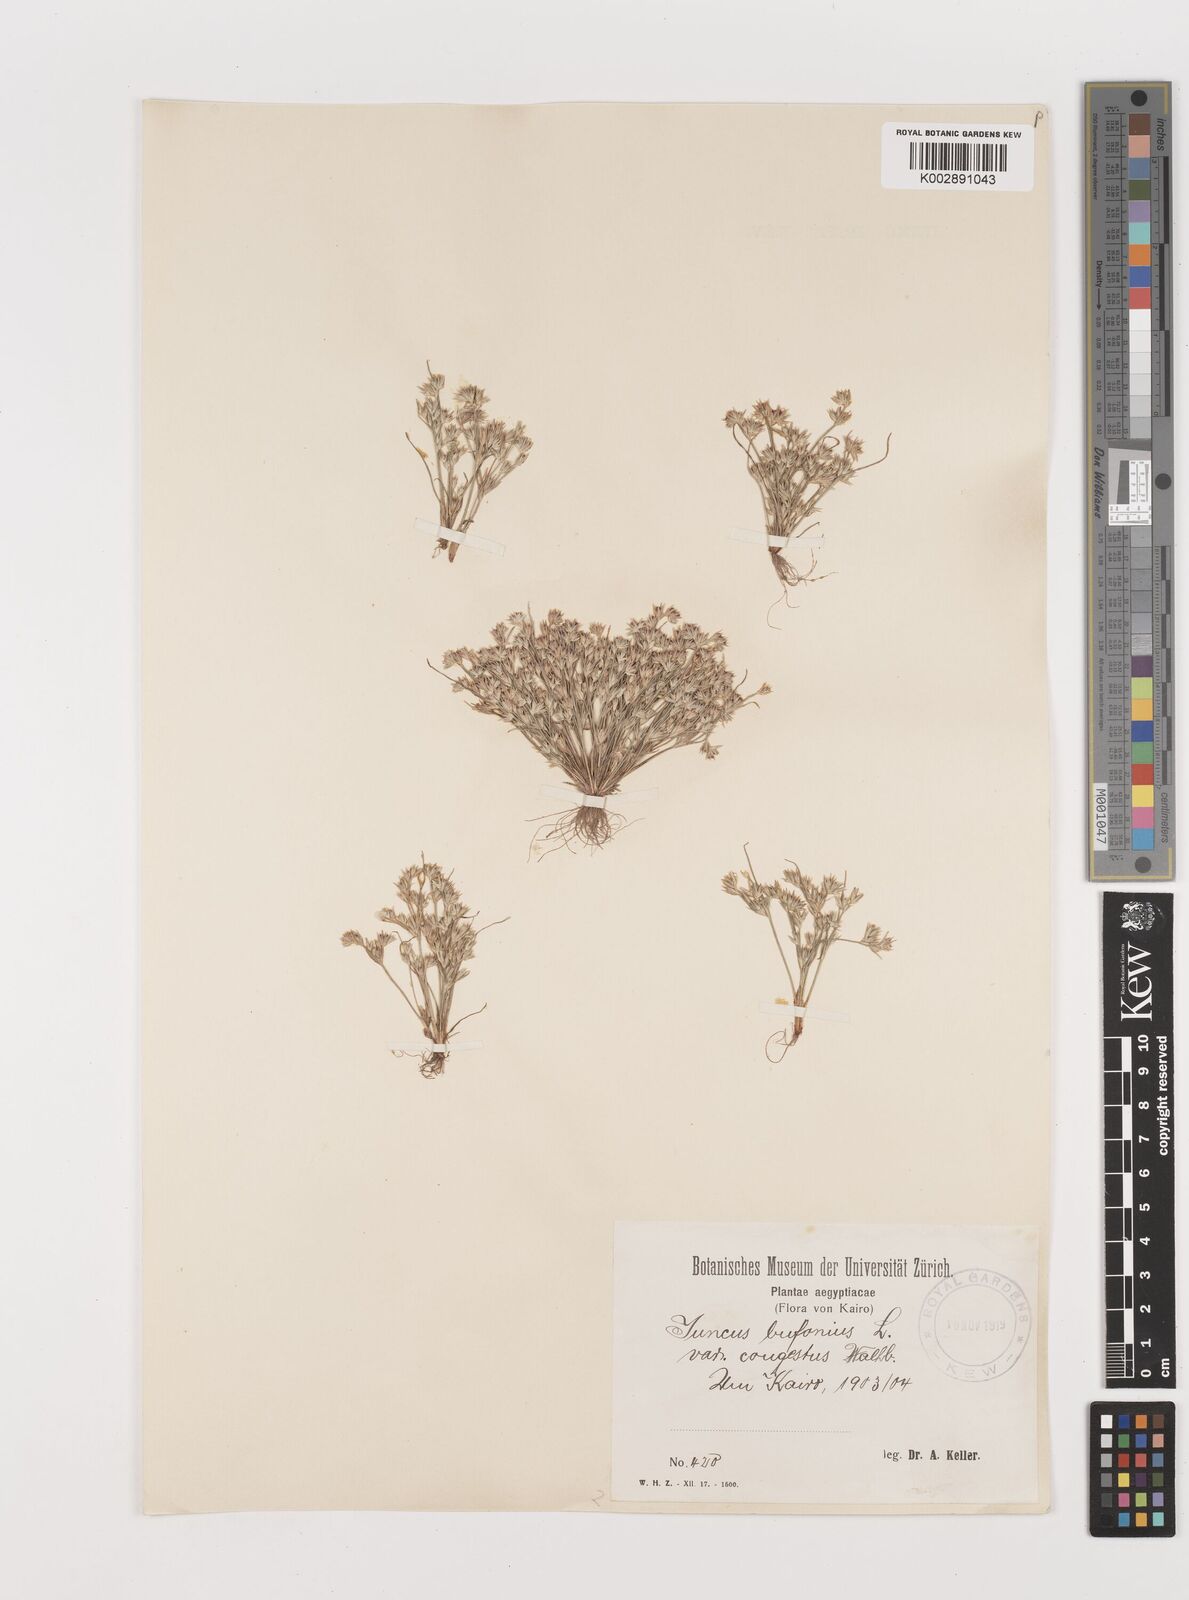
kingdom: Plantae
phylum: Tracheophyta
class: Liliopsida
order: Poales
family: Juncaceae
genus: Juncus
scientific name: Juncus bufonius
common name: Toad rush
